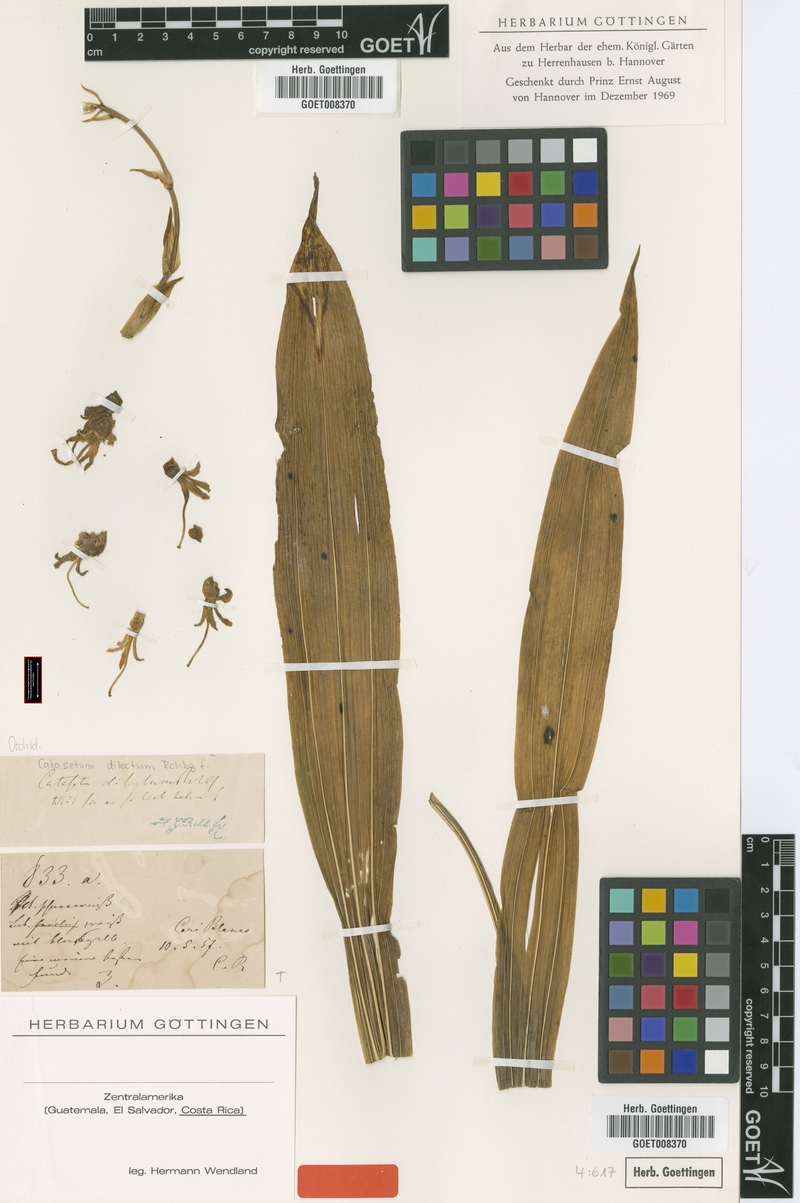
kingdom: Plantae
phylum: Tracheophyta
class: Liliopsida
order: Asparagales
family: Orchidaceae
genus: Dressleria
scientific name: Dressleria dilecta
